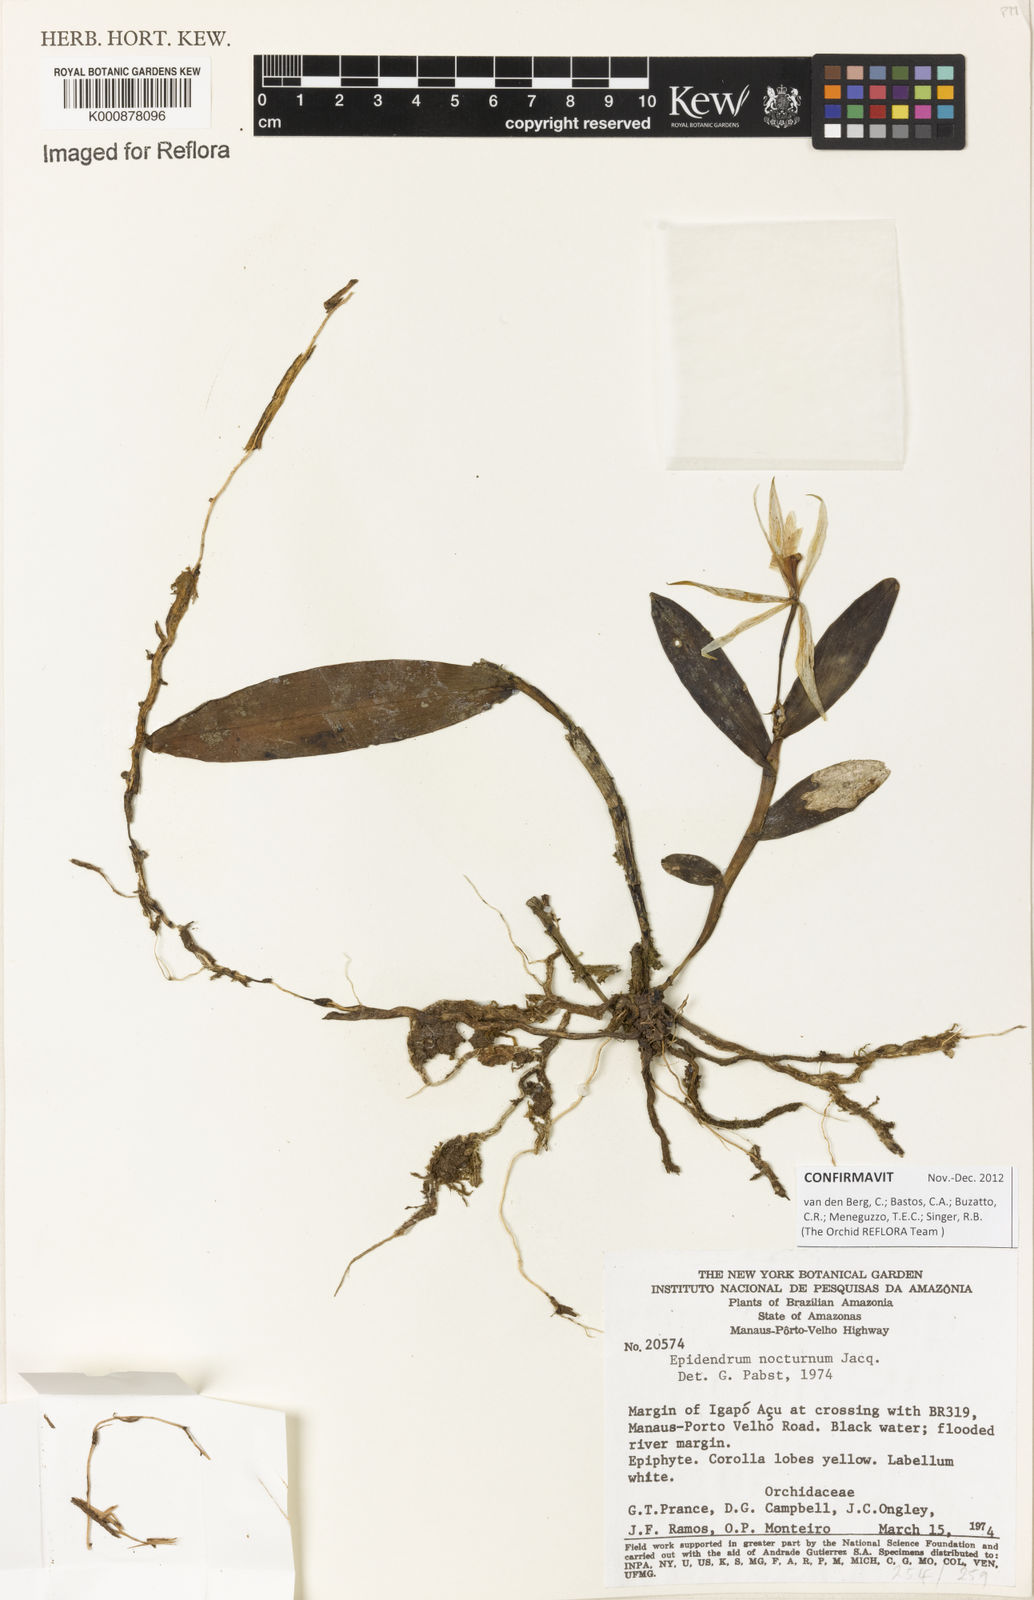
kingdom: Plantae
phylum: Tracheophyta
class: Liliopsida
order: Asparagales
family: Orchidaceae
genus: Epidendrum
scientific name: Epidendrum nocturnum
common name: Night scented orchid
